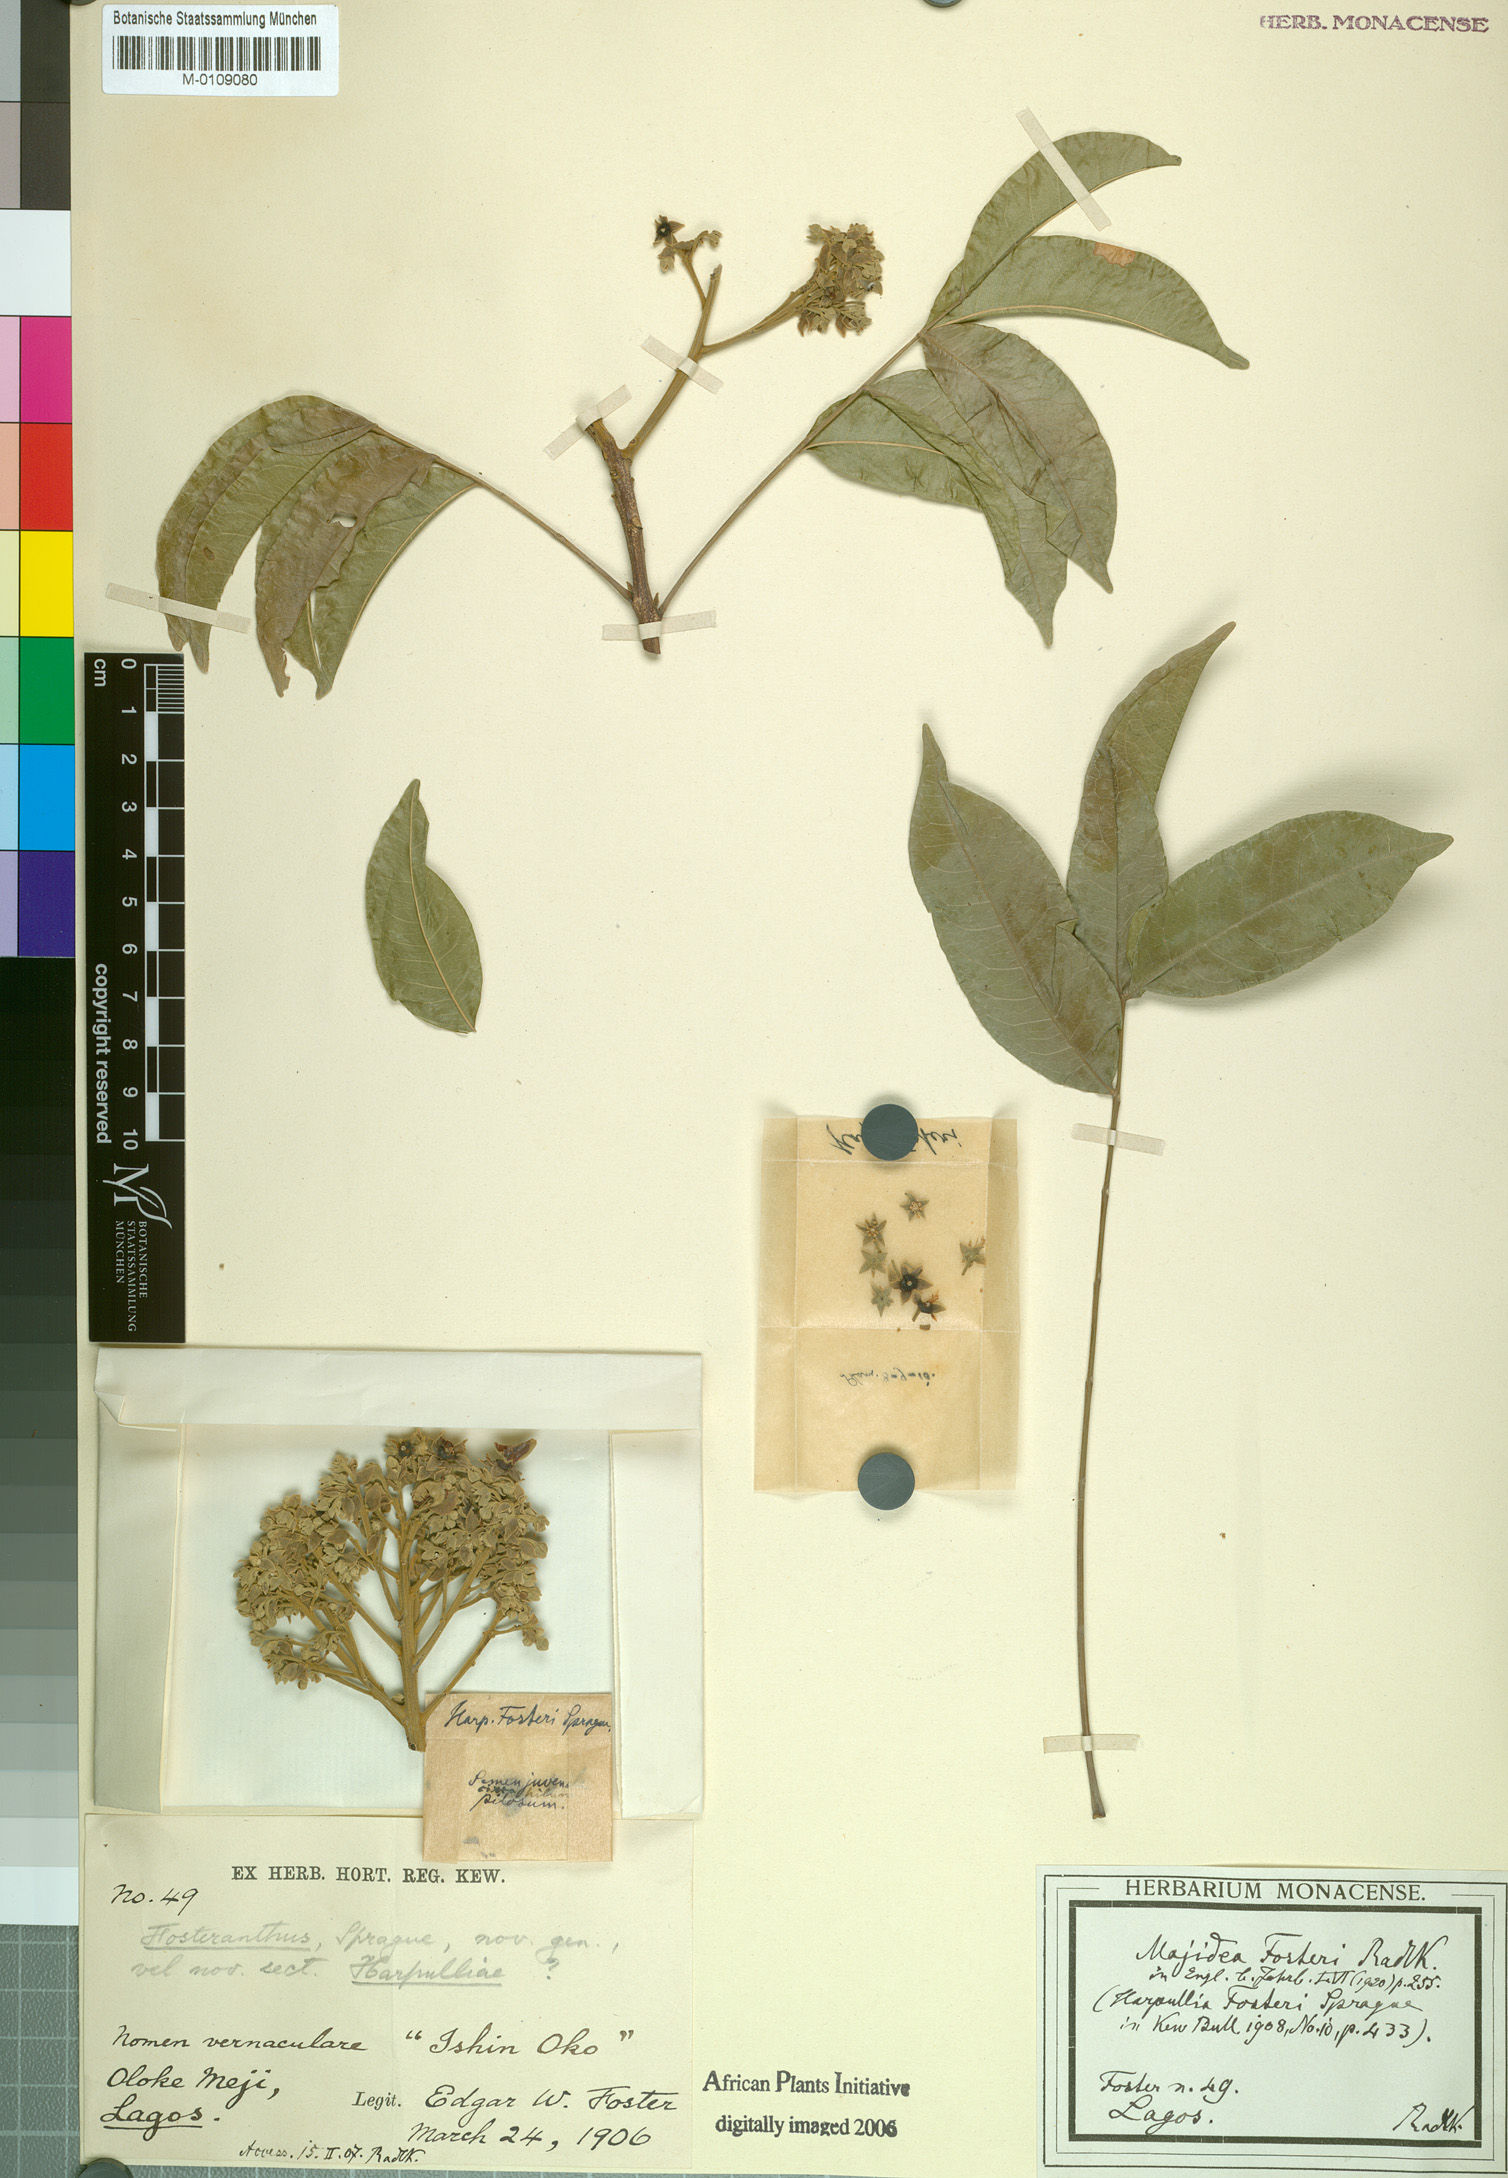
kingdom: Plantae
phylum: Tracheophyta
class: Magnoliopsida
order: Sapindales
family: Sapindaceae
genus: Majidea
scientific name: Majidea fosteri
